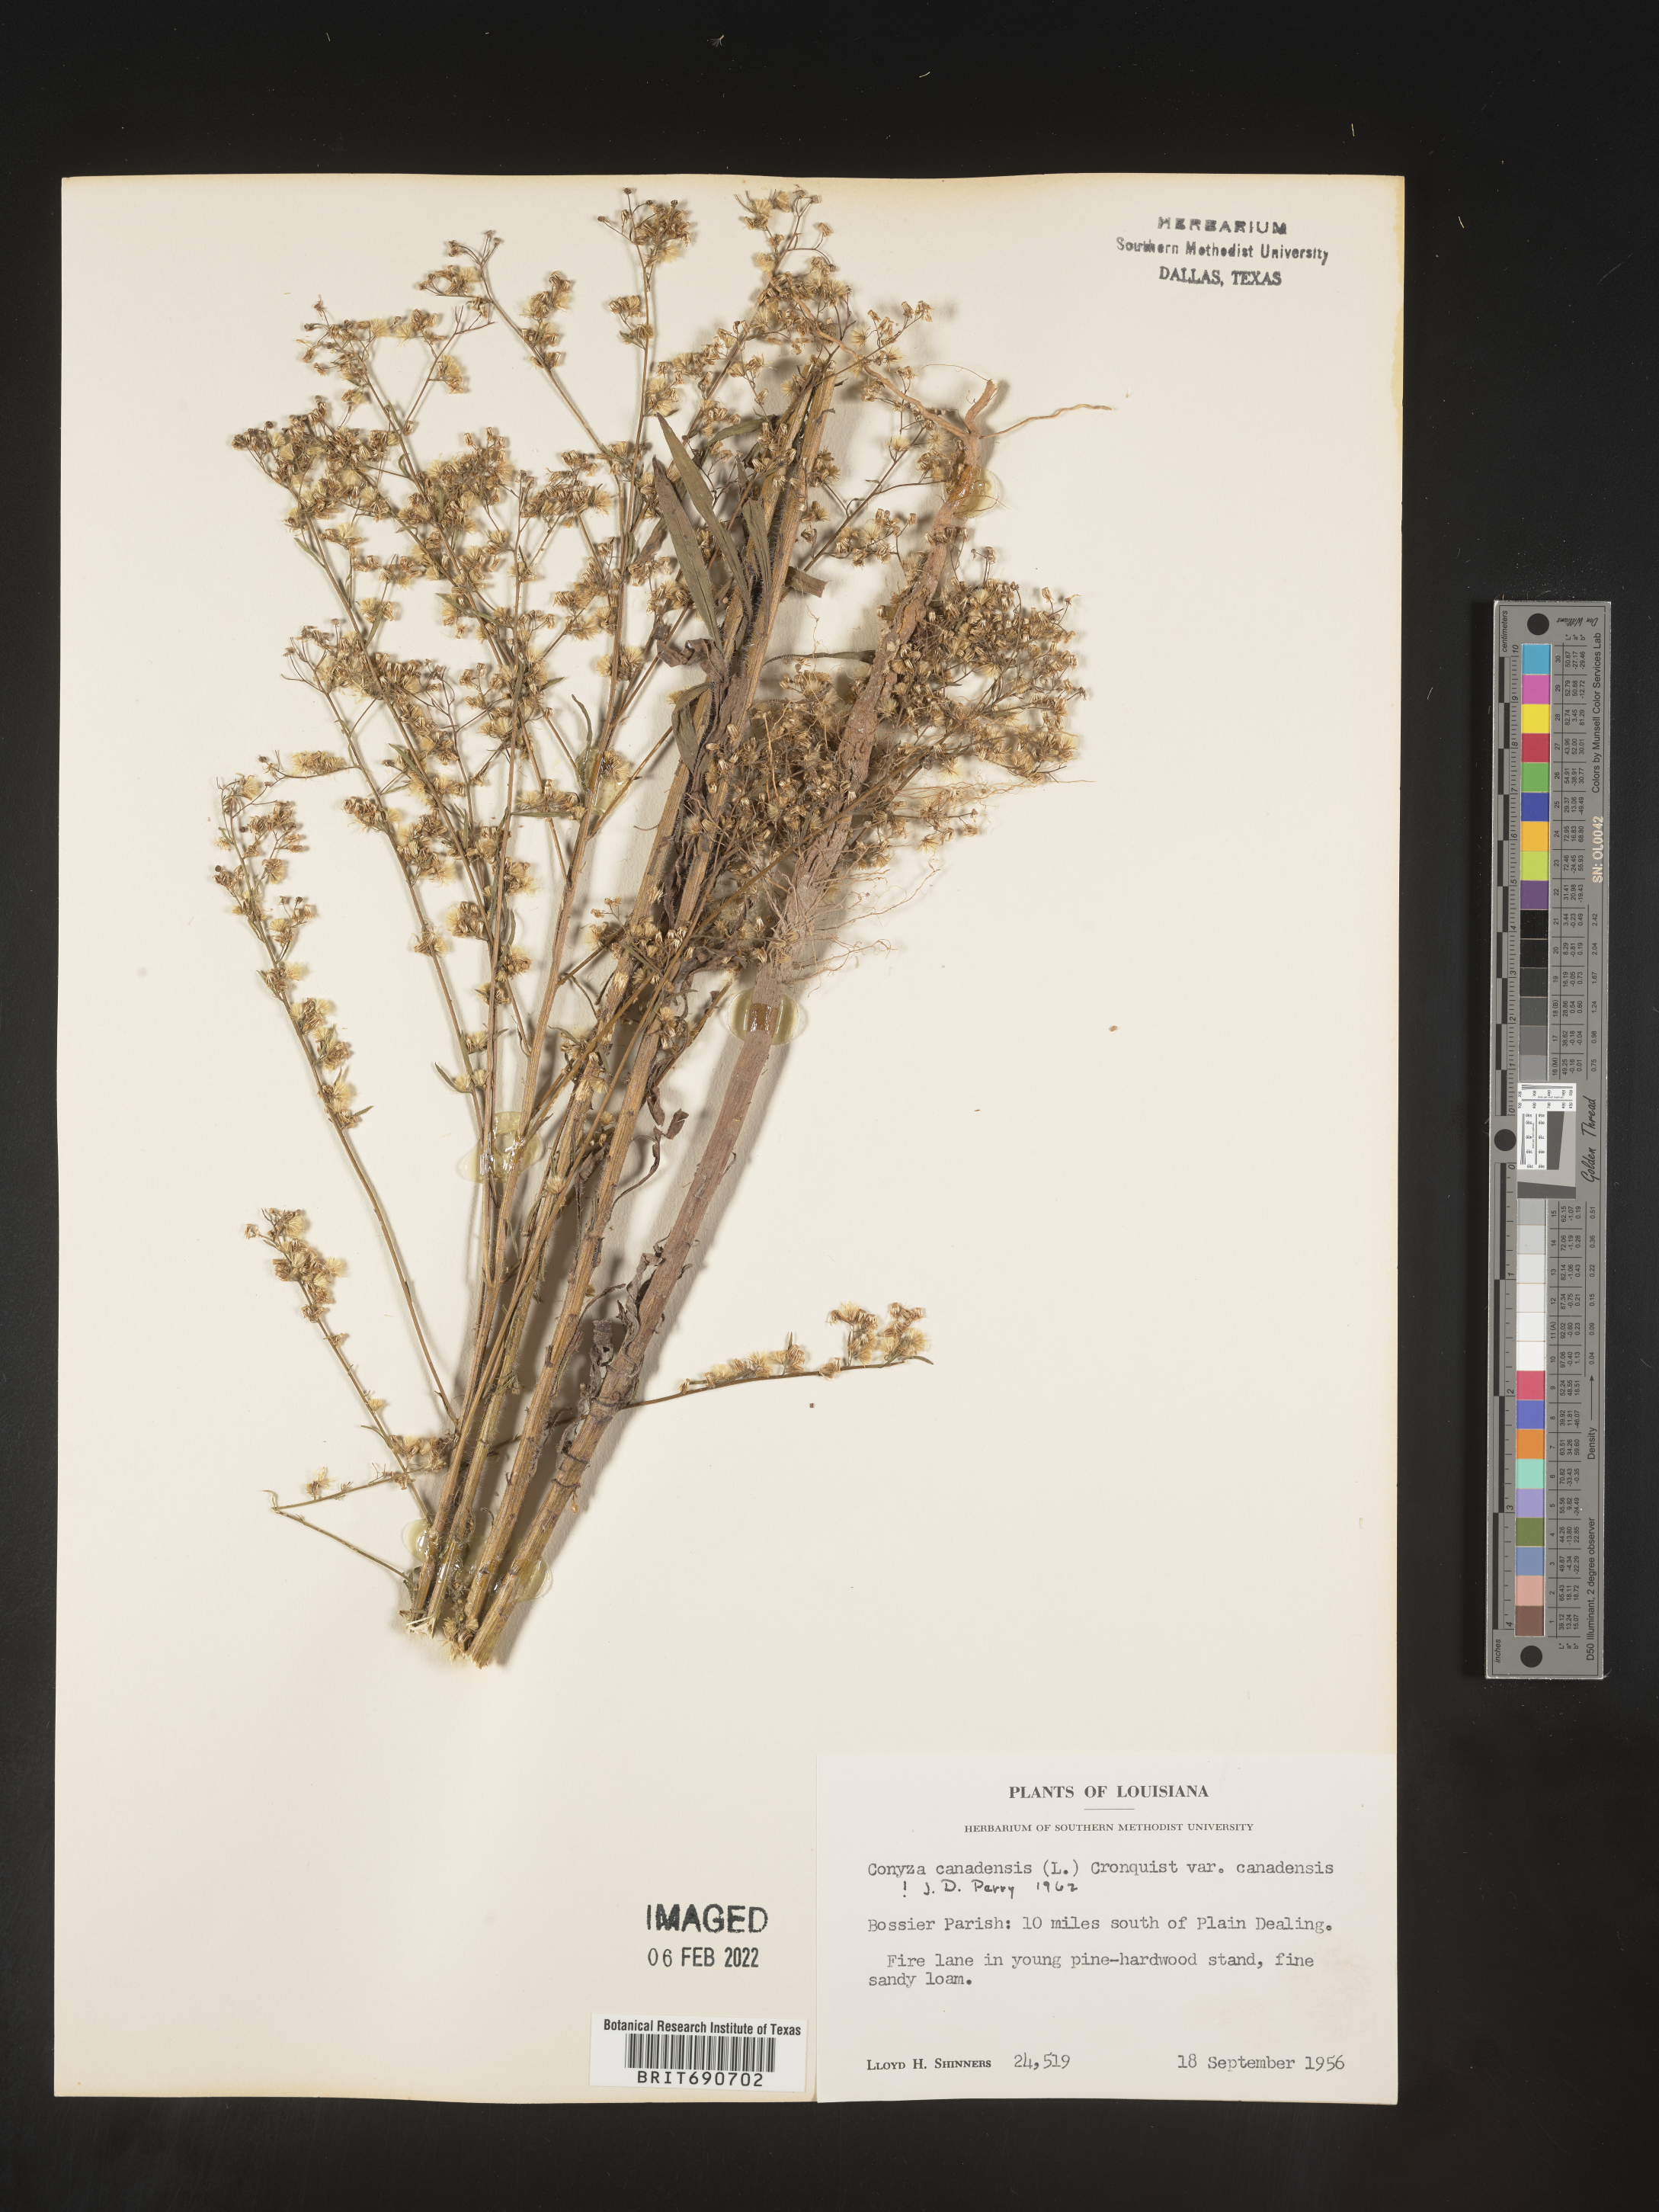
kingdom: Plantae
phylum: Tracheophyta
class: Magnoliopsida
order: Asterales
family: Asteraceae
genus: Erigeron
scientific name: Erigeron canadensis
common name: Canadian fleabane
